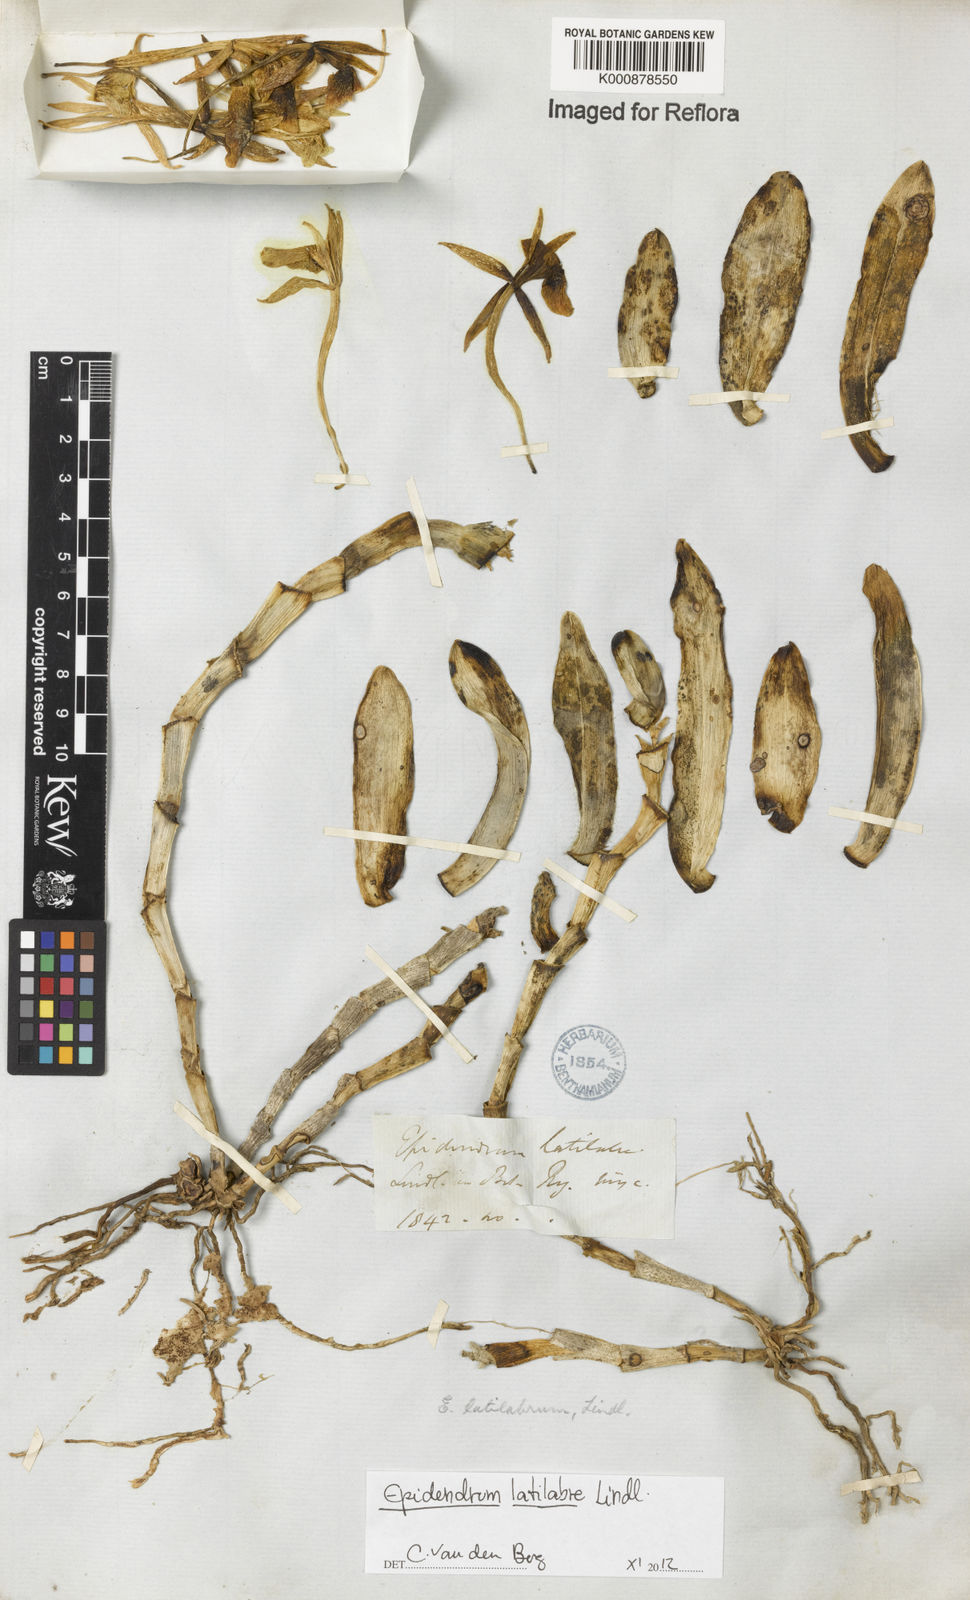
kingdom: Plantae
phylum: Tracheophyta
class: Liliopsida
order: Asparagales
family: Orchidaceae
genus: Epidendrum
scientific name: Epidendrum latilabre
